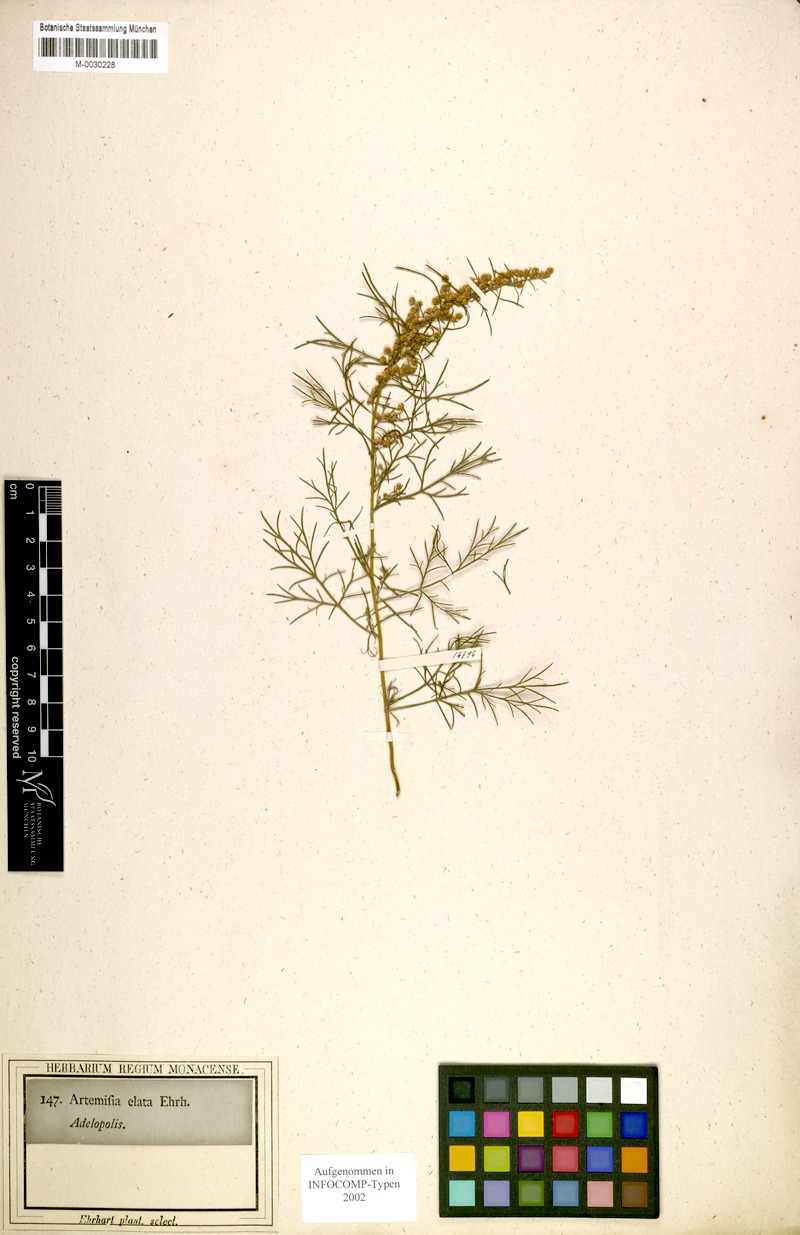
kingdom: Plantae
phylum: Tracheophyta
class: Magnoliopsida
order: Asterales
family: Asteraceae
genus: Artemisia
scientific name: Artemisia
